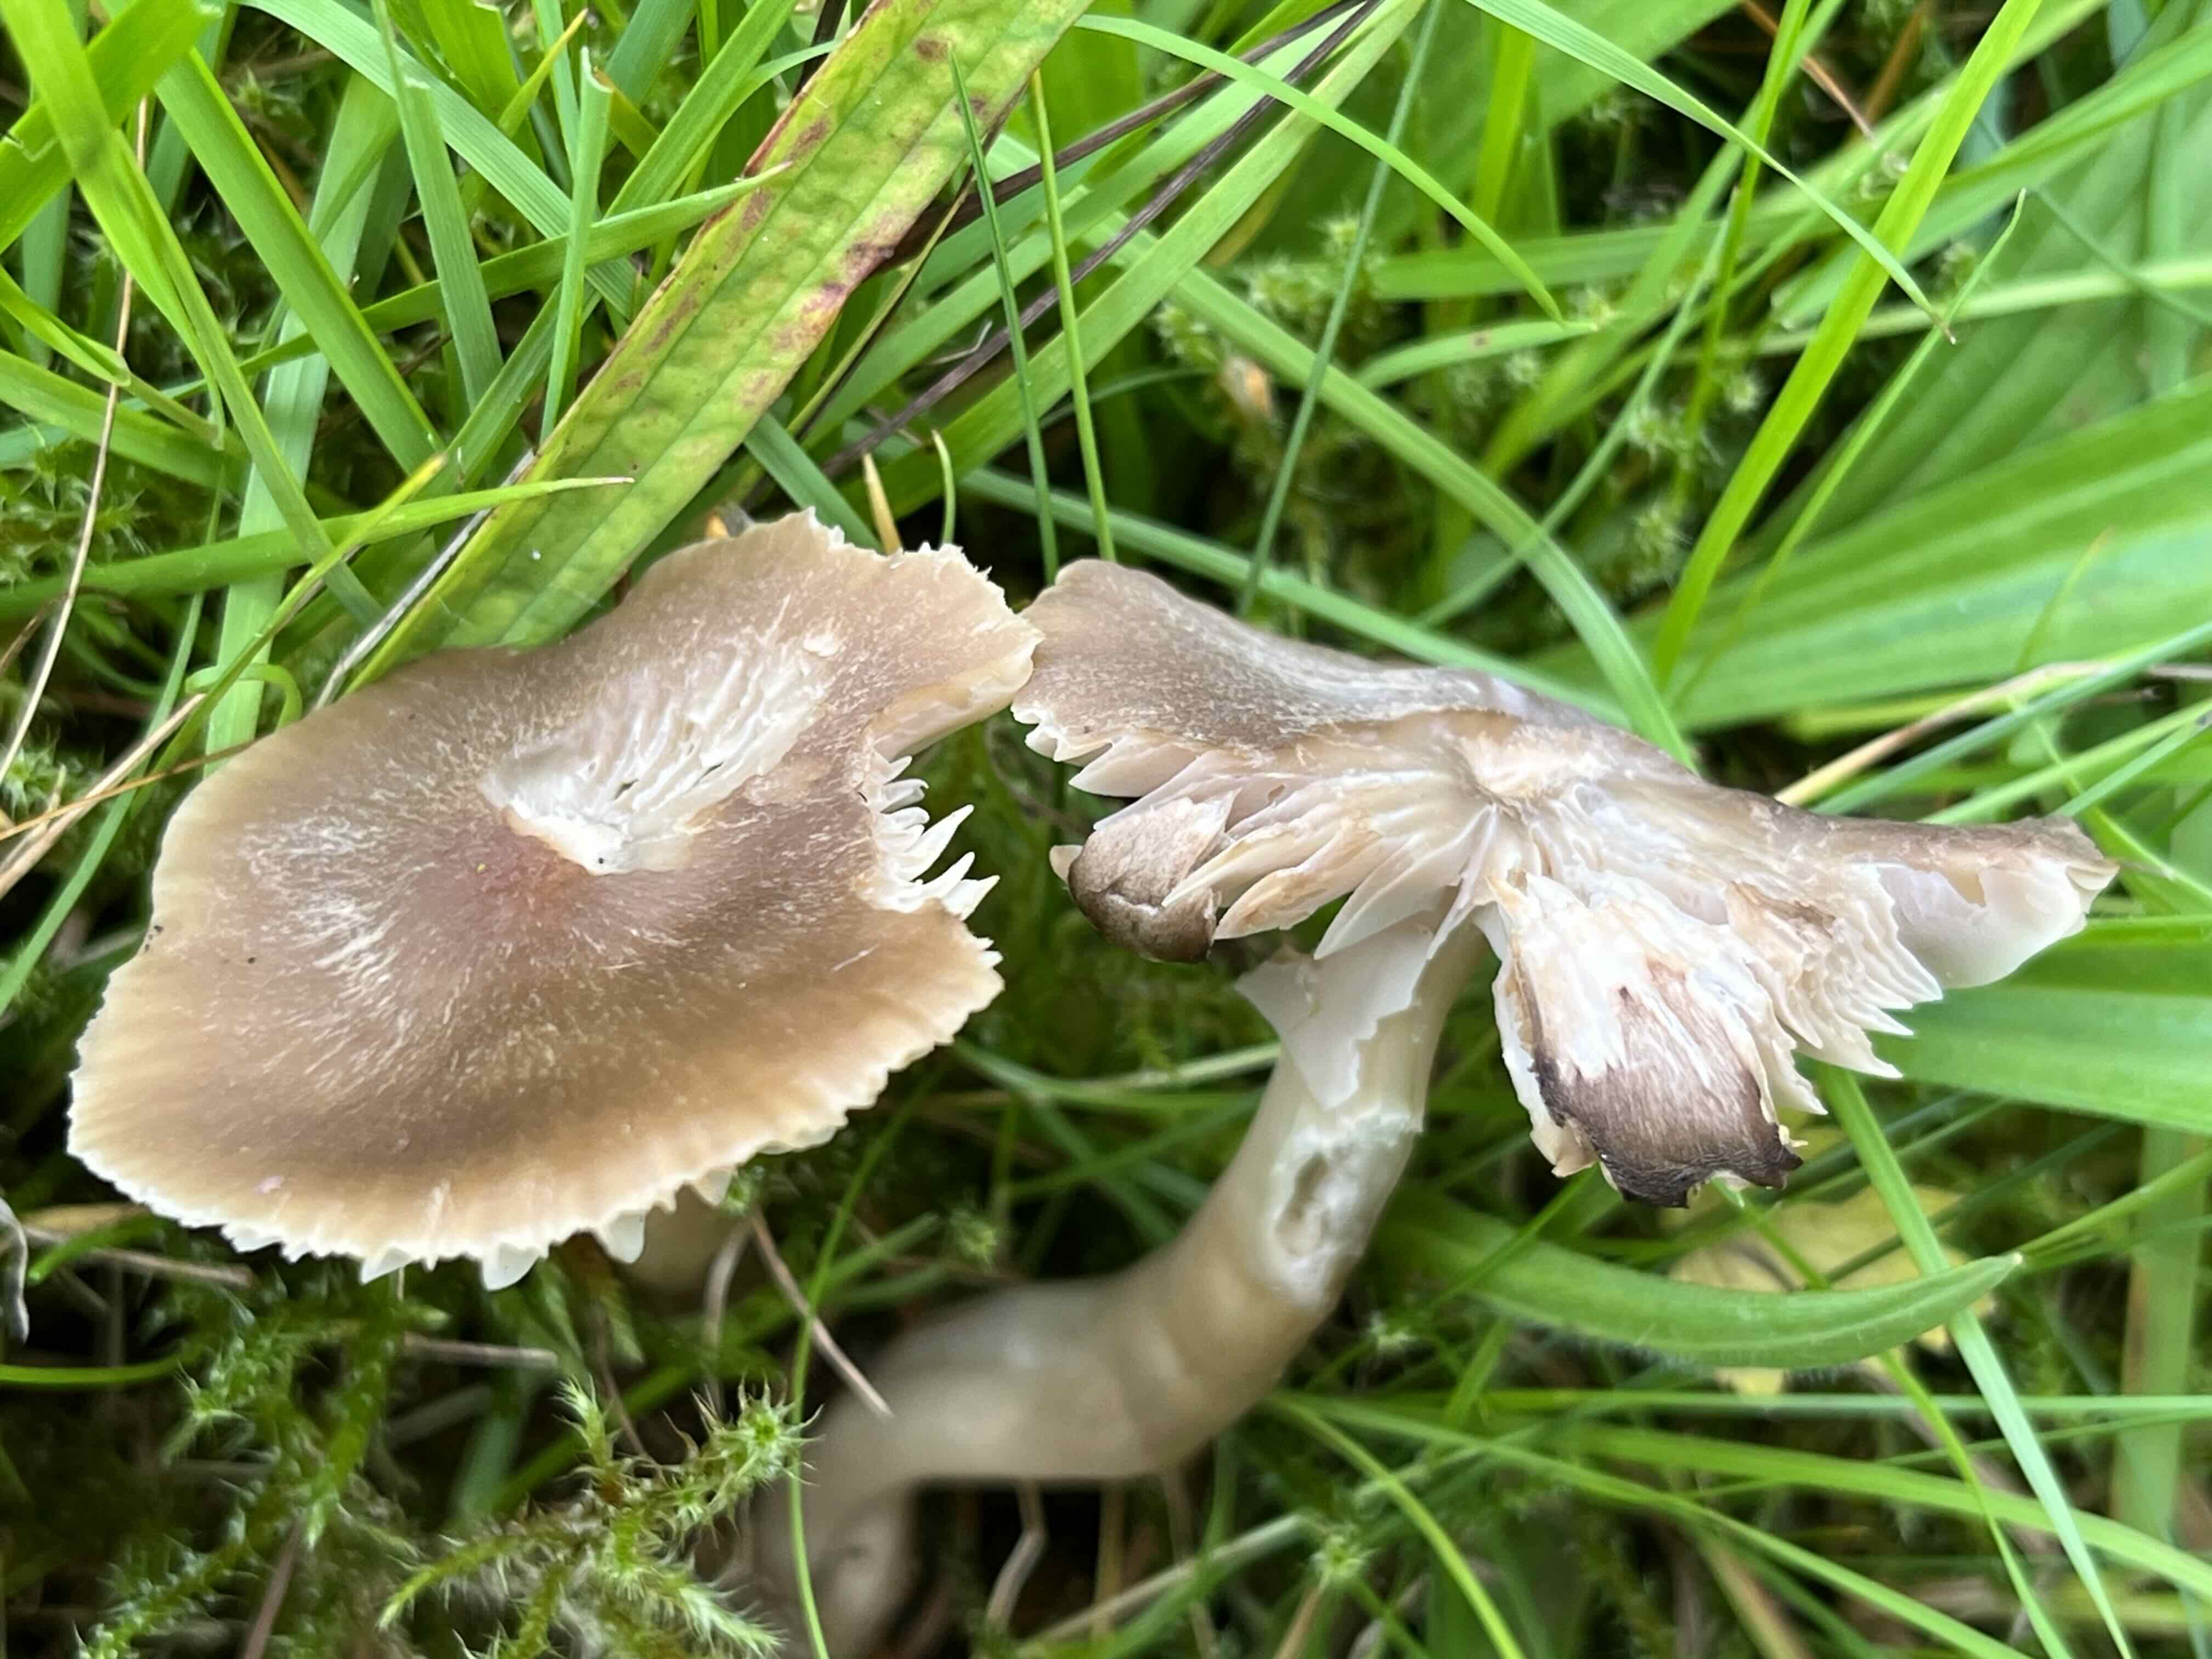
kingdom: Fungi
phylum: Basidiomycota
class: Agaricomycetes
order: Agaricales
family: Hygrophoraceae
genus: Neohygrocybe
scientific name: Neohygrocybe nitrata
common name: stinkende vokshat
